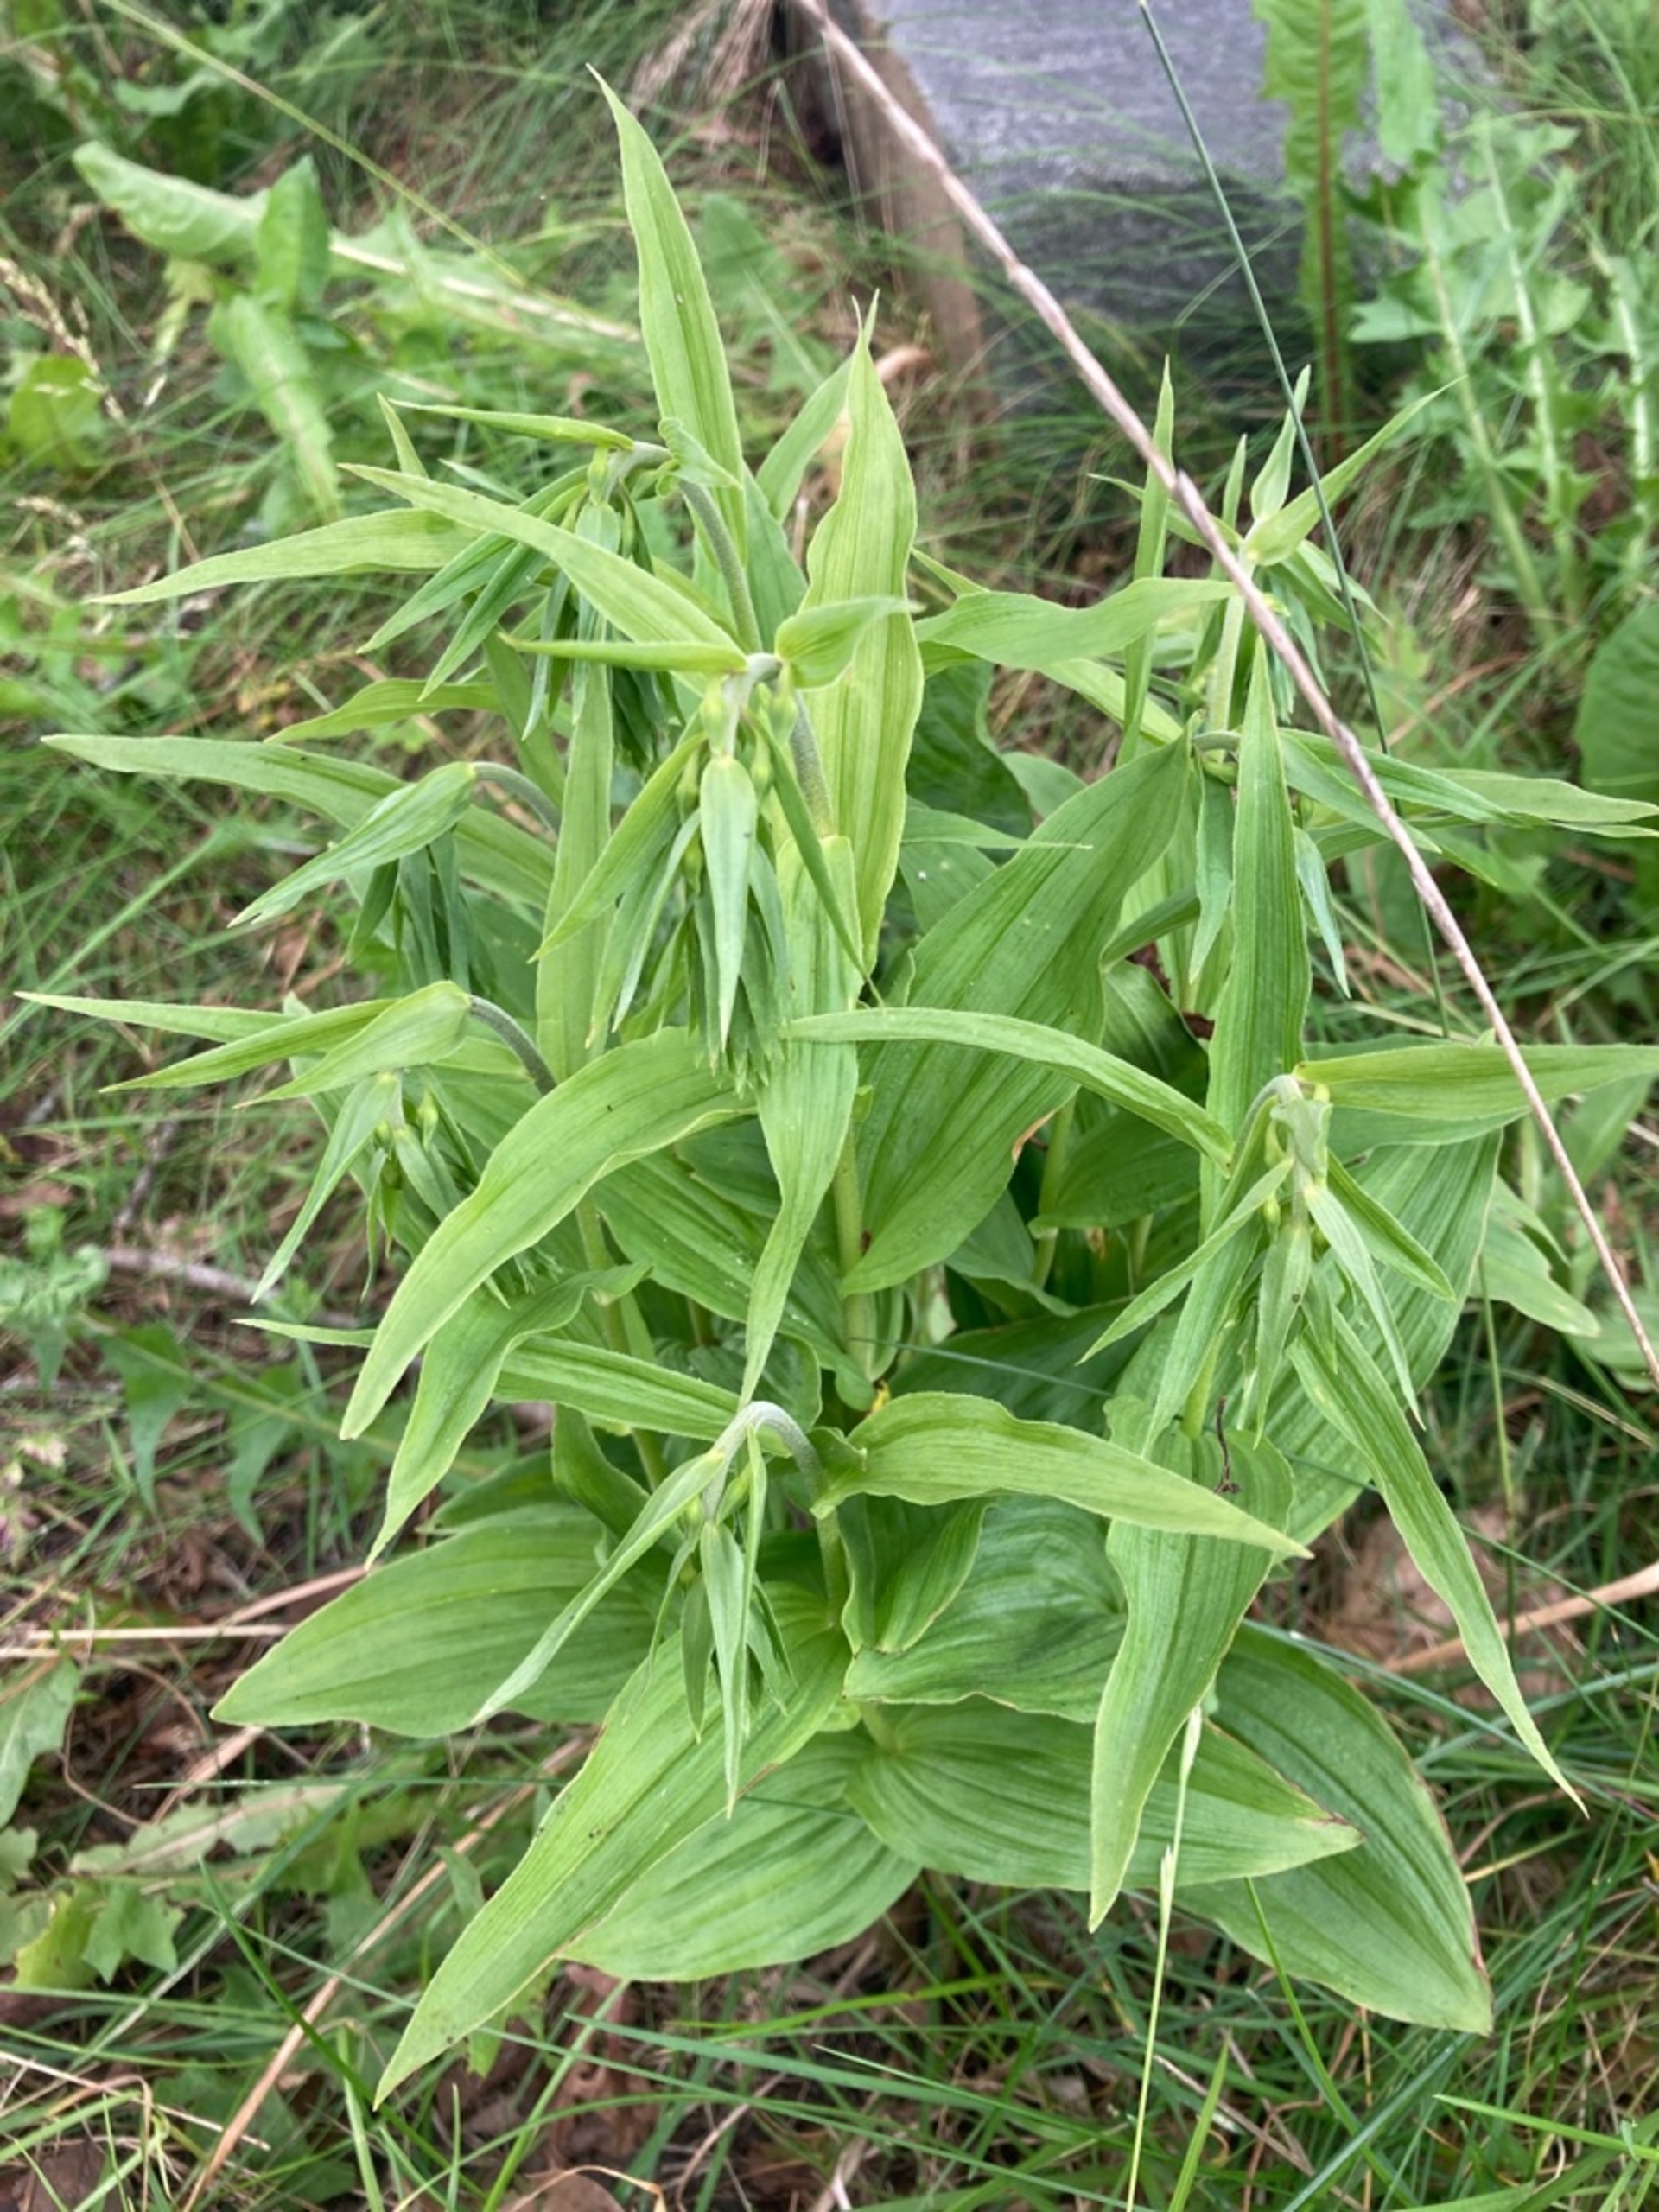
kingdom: Plantae
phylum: Tracheophyta
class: Liliopsida
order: Asparagales
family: Orchidaceae
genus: Epipactis
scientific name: Epipactis helleborine
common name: Skov-hullæbe
